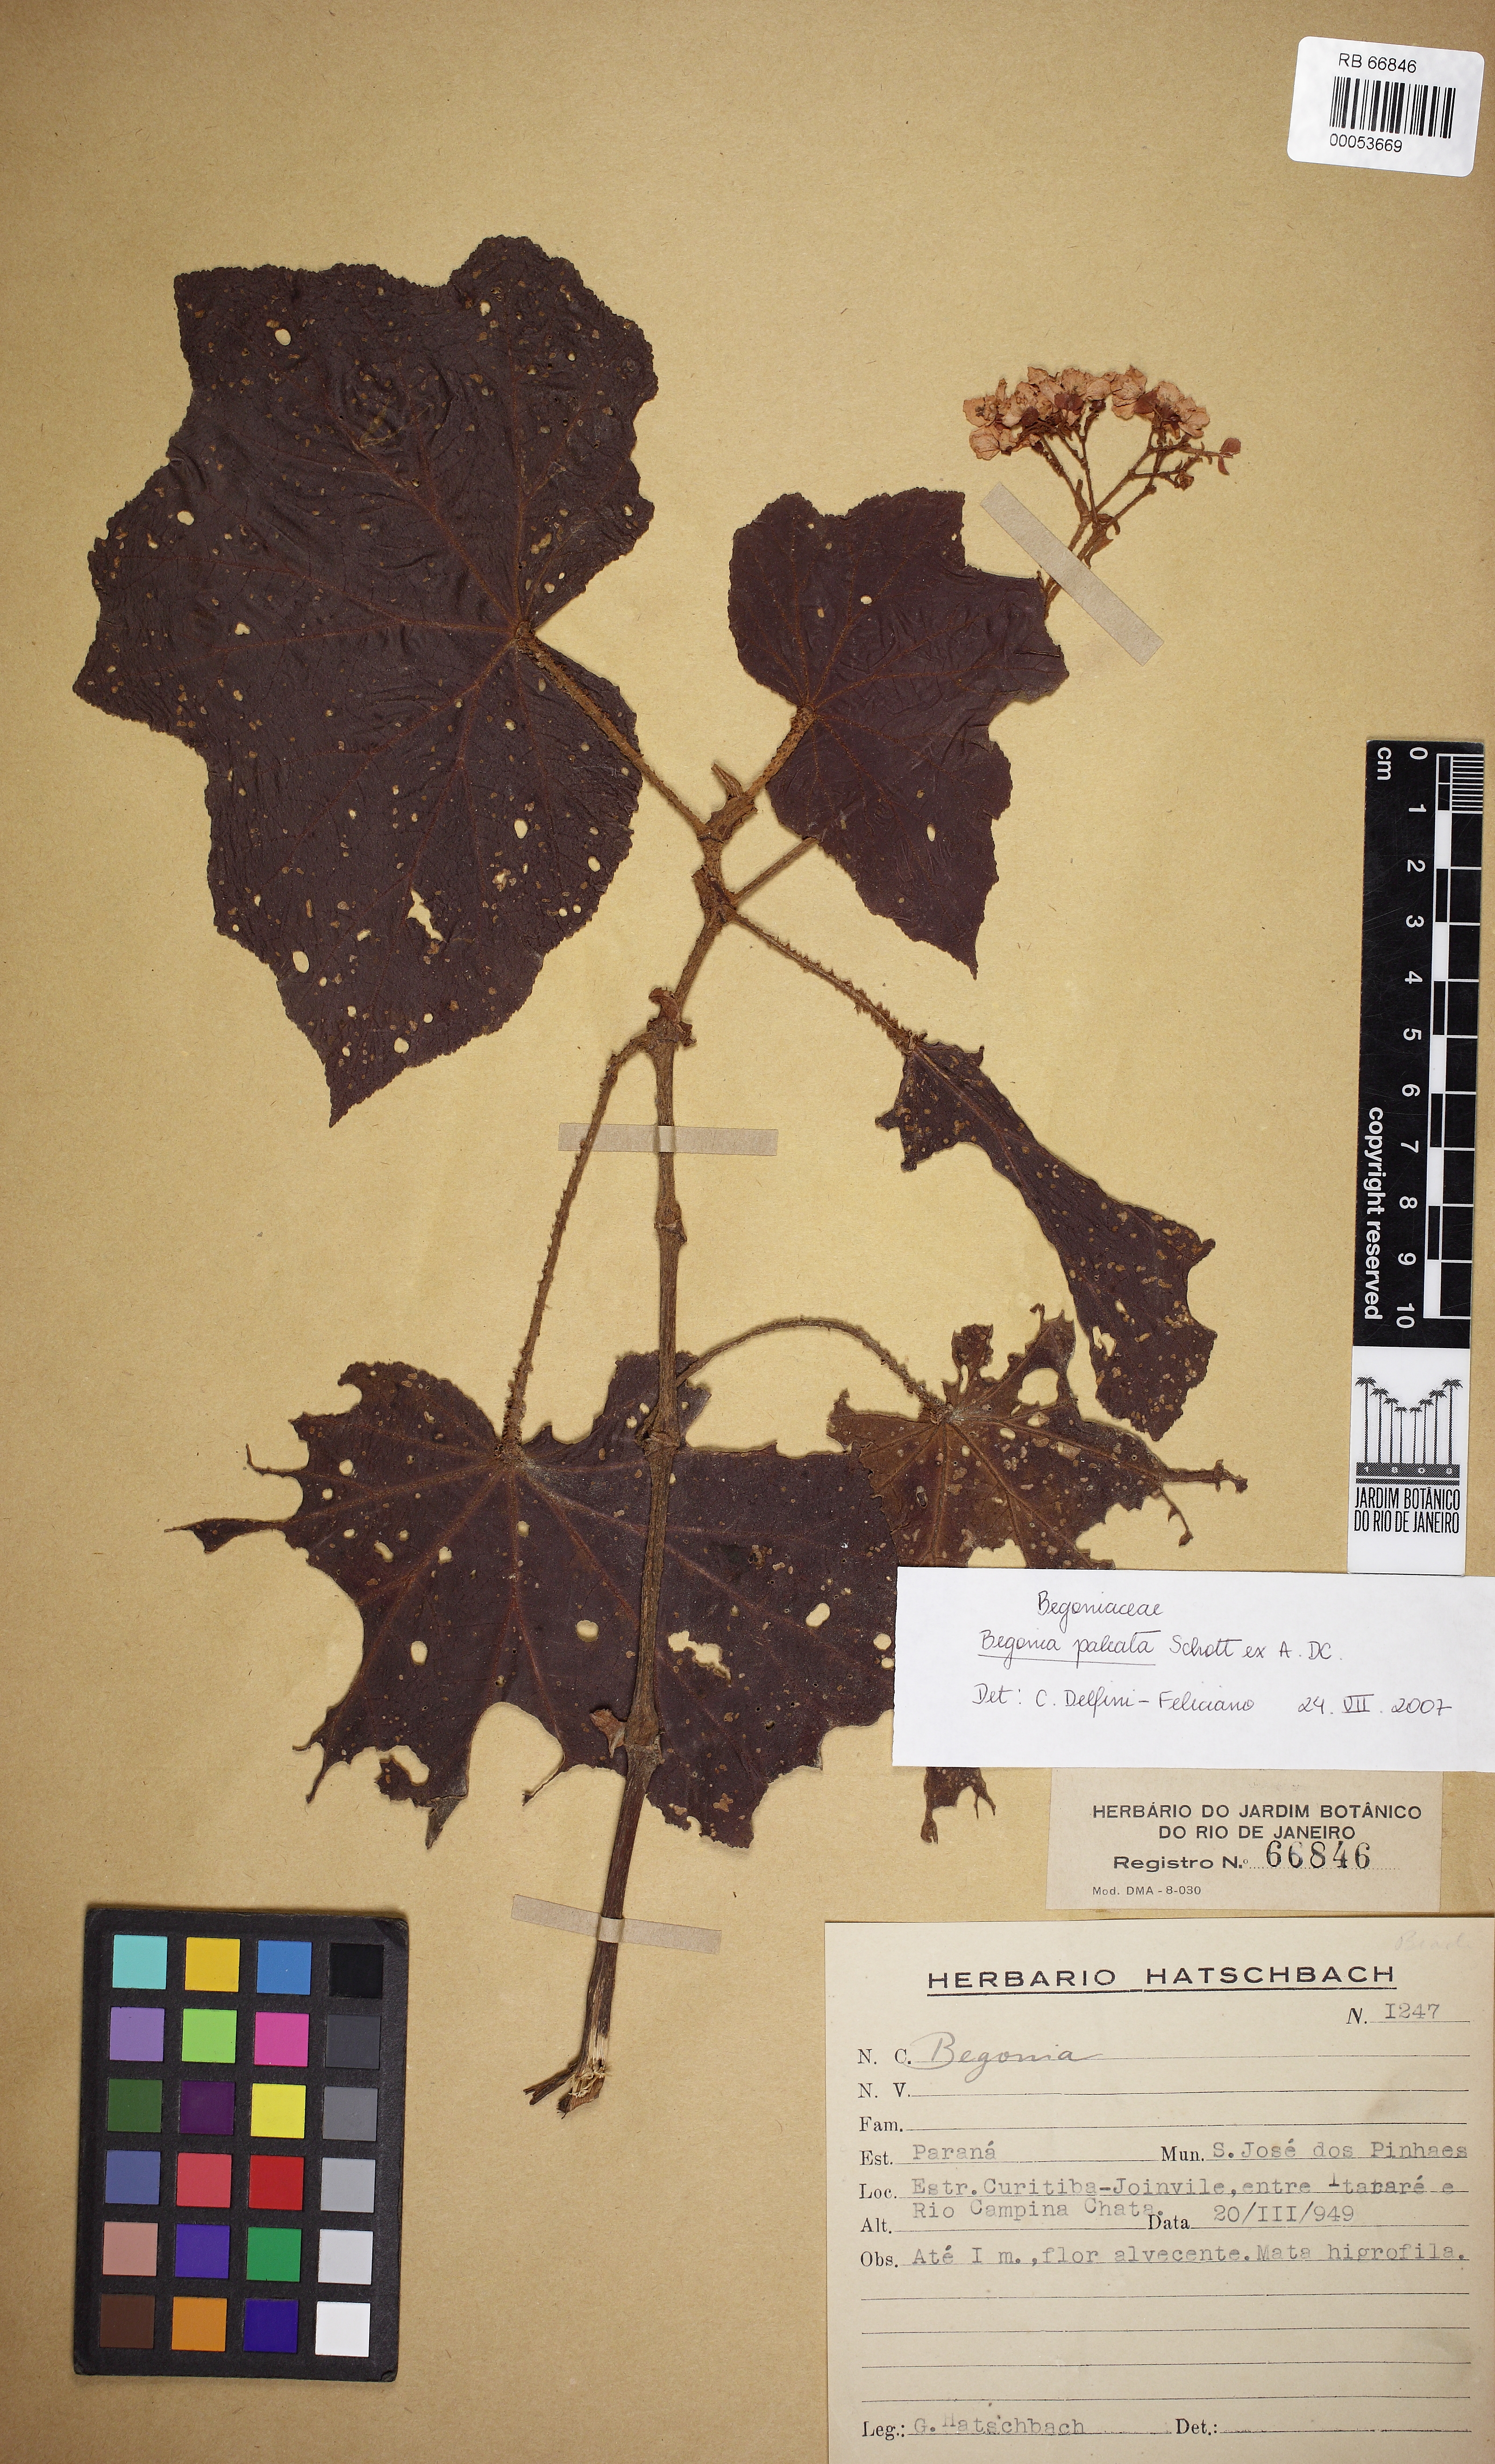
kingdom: Plantae
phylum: Tracheophyta
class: Magnoliopsida
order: Cucurbitales
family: Begoniaceae
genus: Begonia
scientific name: Begonia paleata
